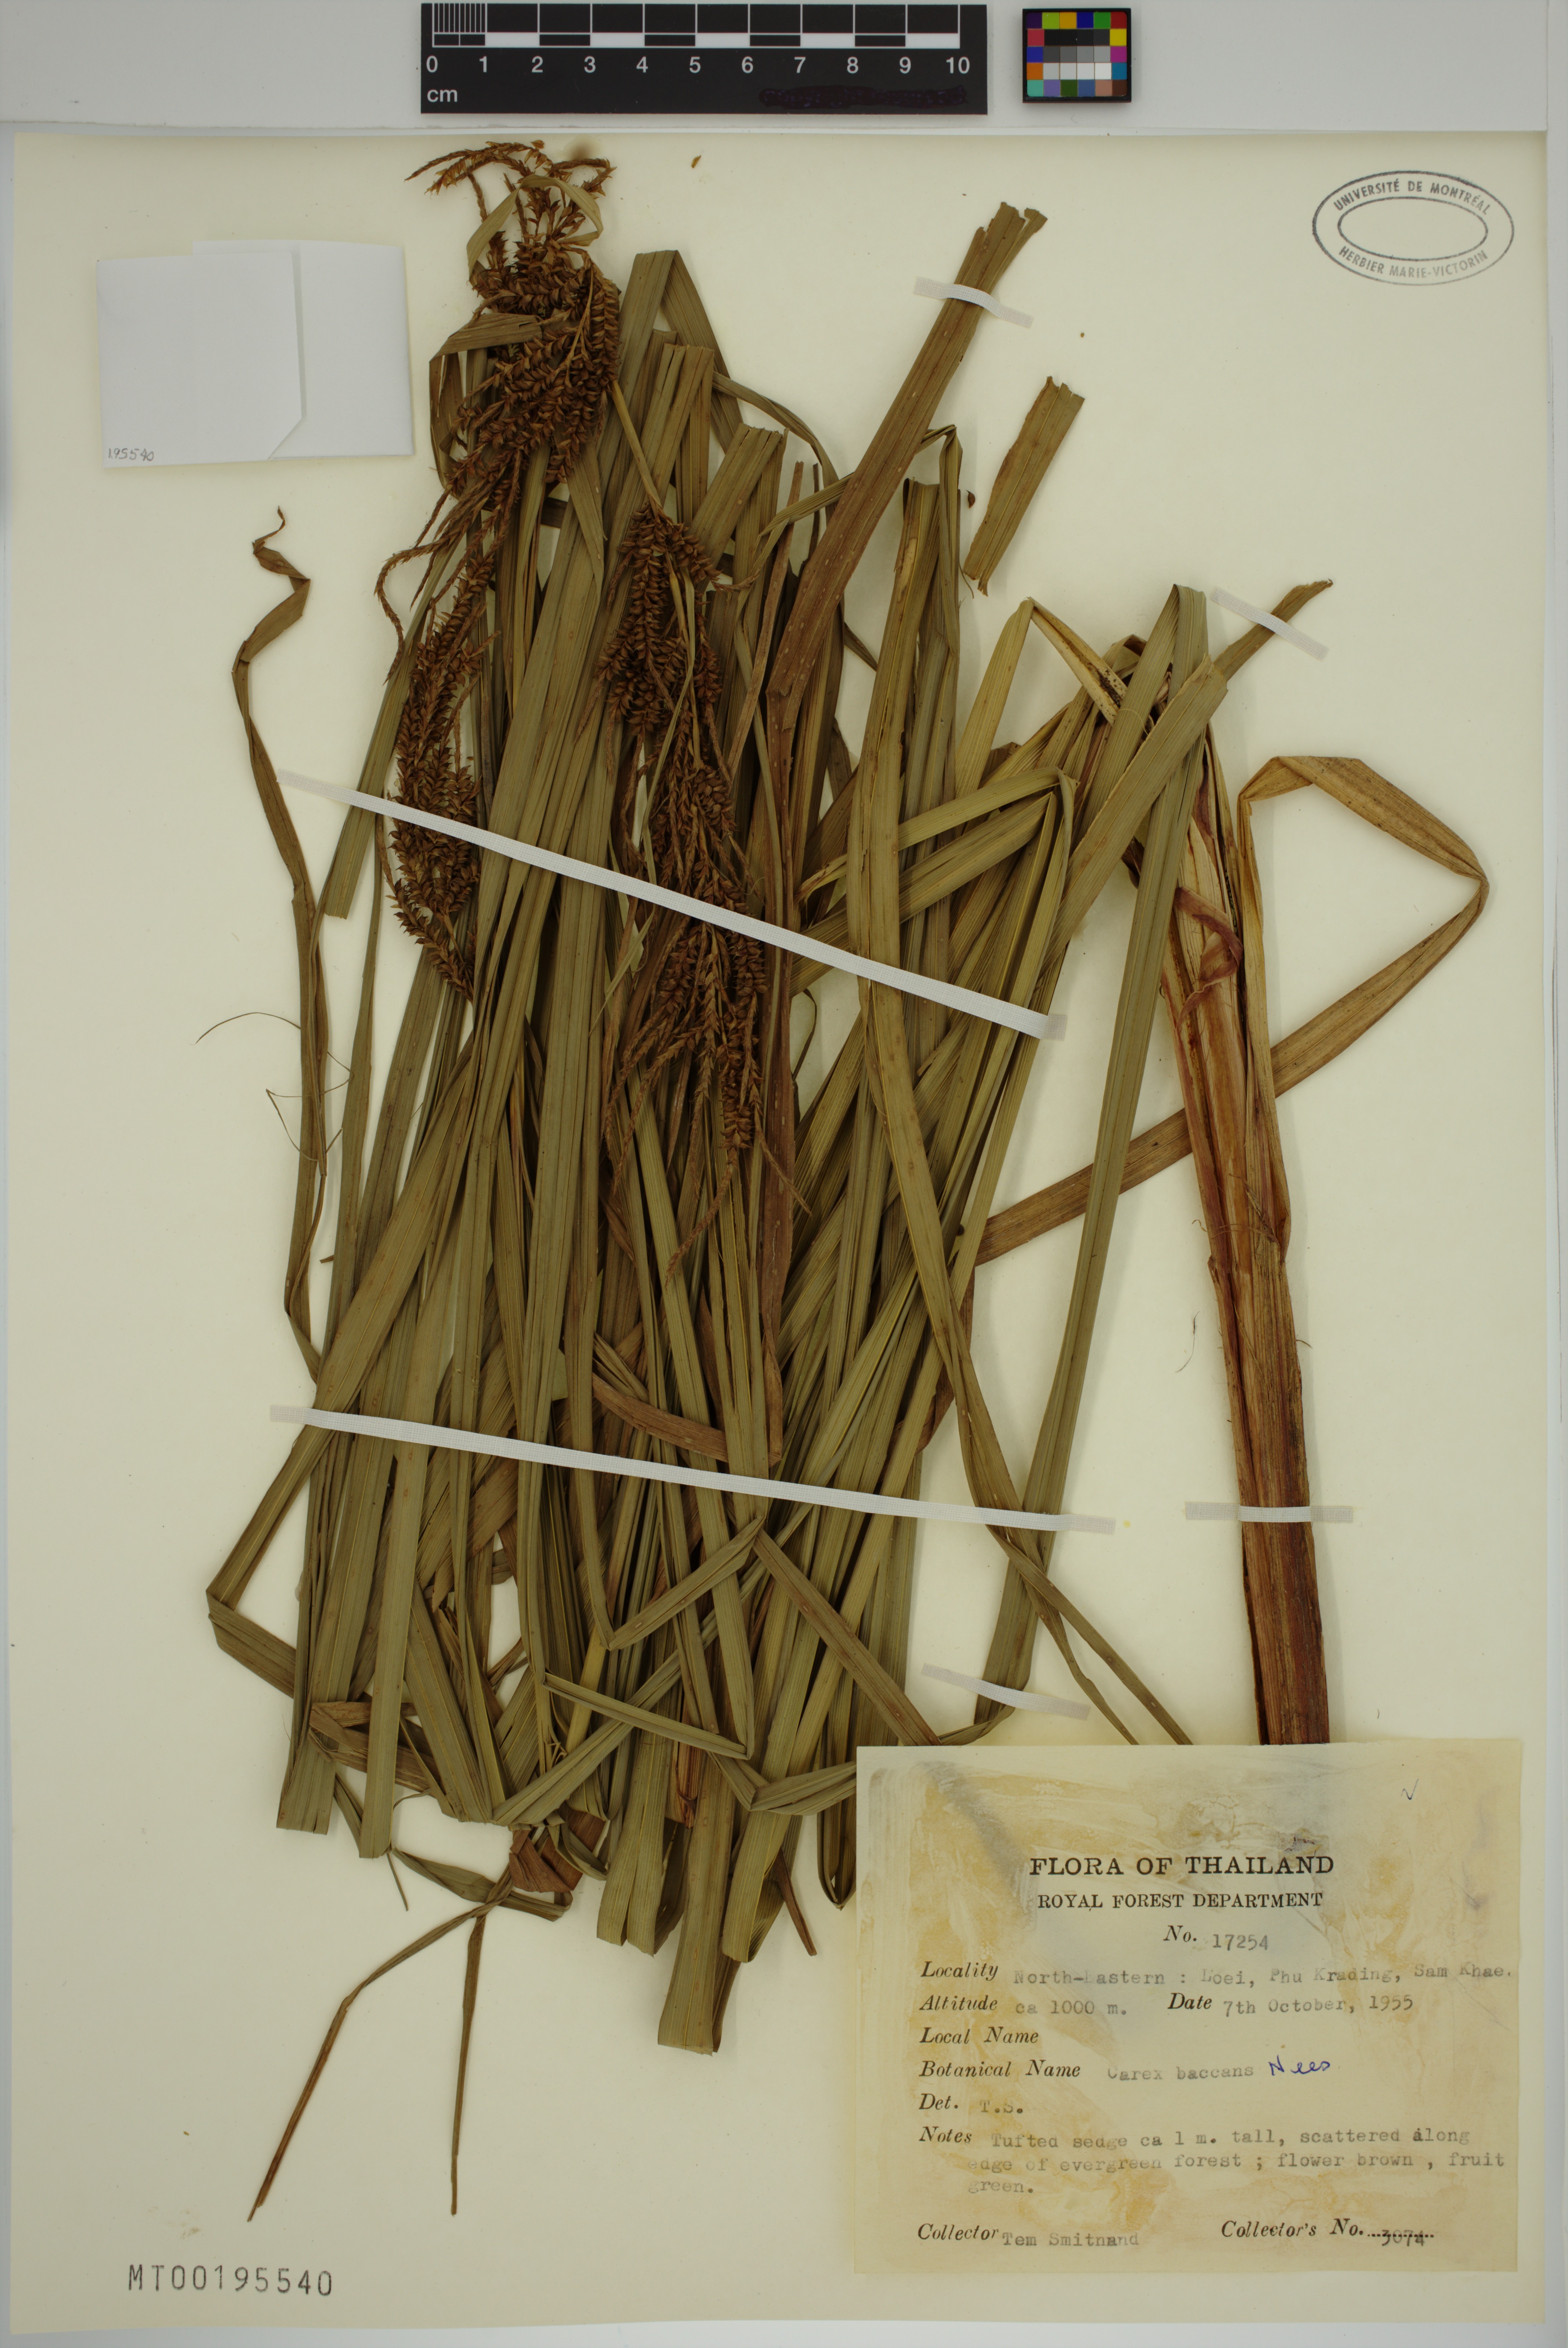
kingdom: Plantae
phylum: Tracheophyta
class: Liliopsida
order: Poales
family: Cyperaceae
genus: Carex
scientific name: Carex baccans
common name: Crimson seeded sedge
